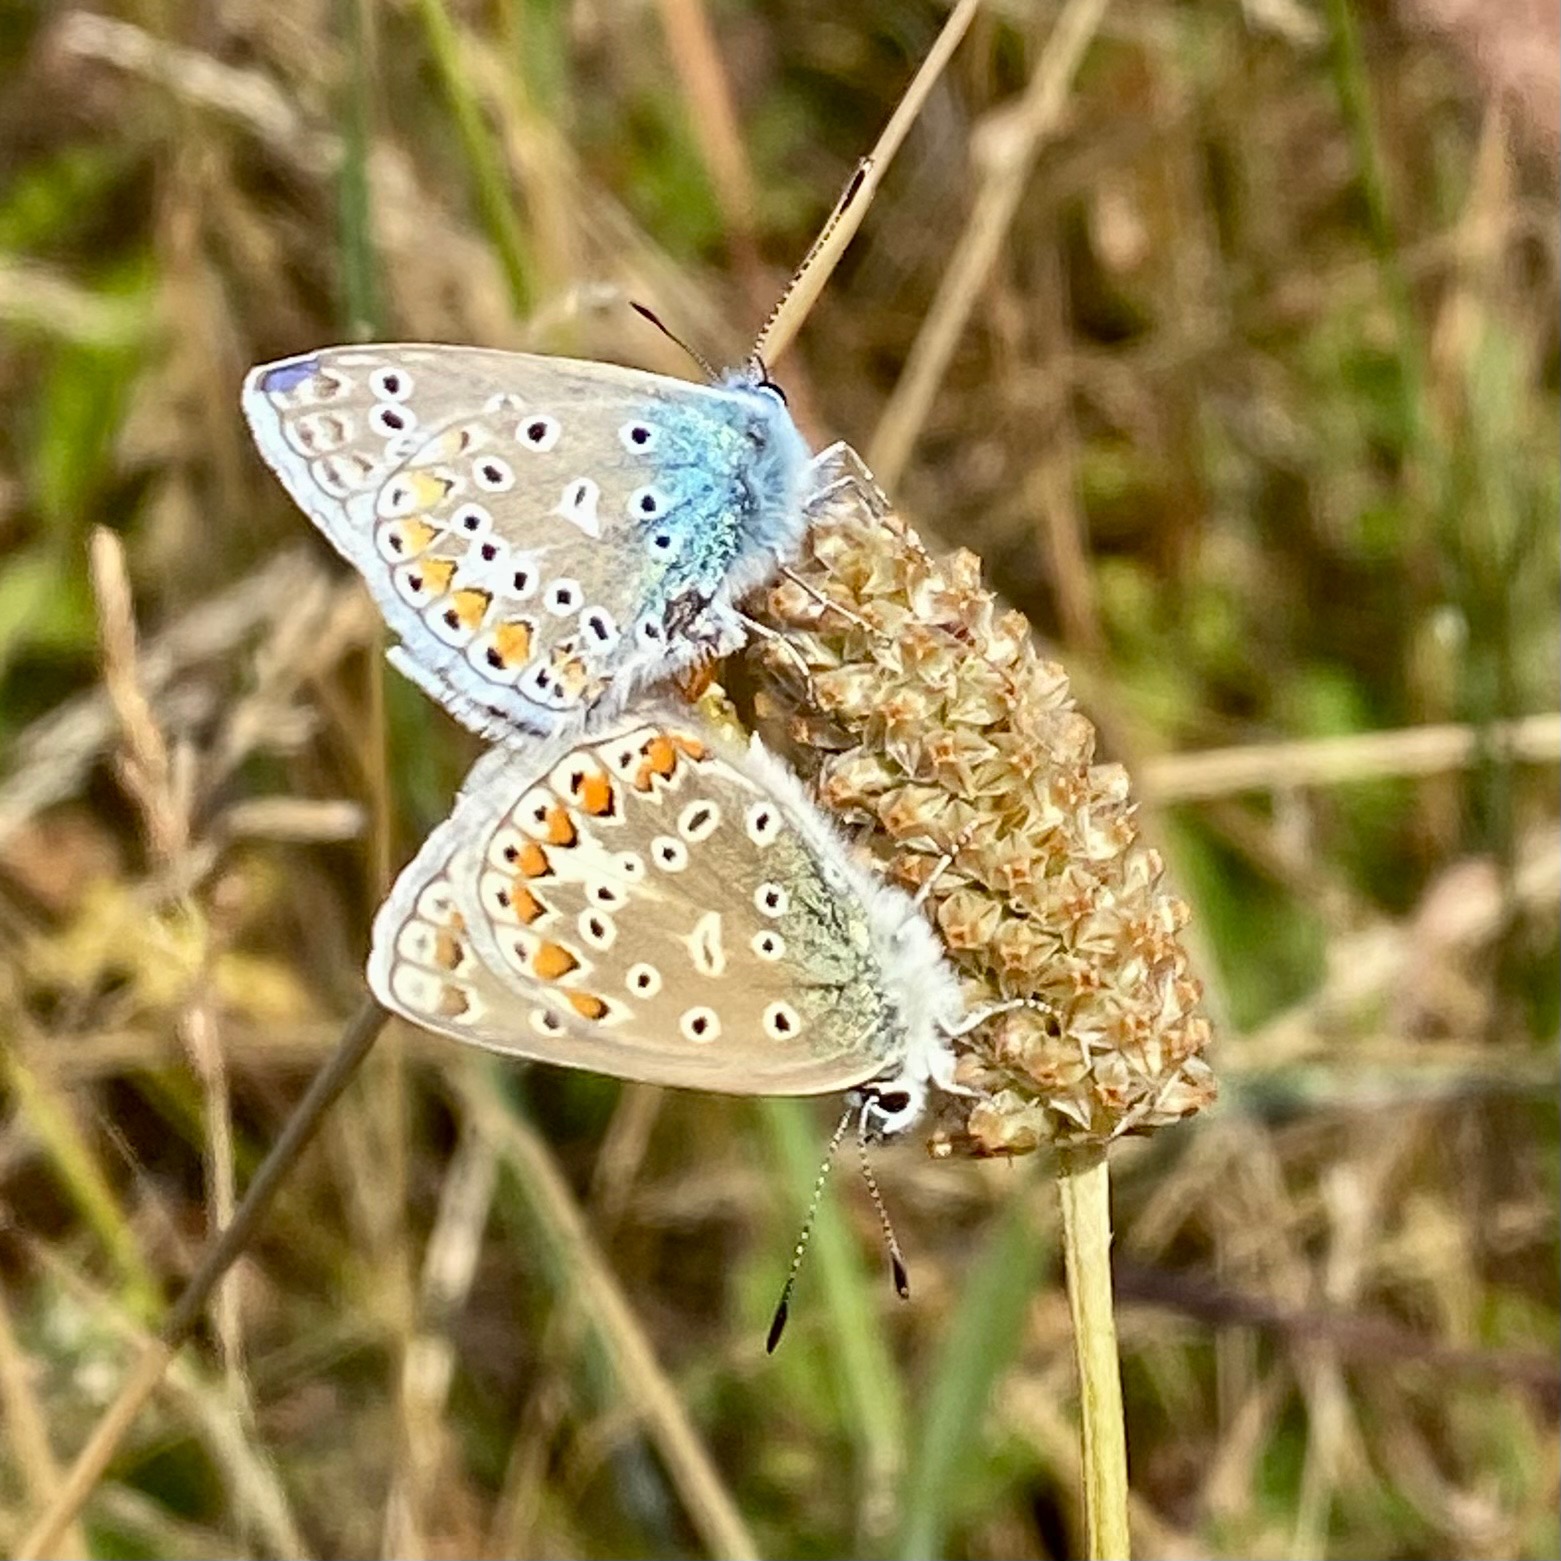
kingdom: Animalia
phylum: Arthropoda
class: Insecta
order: Lepidoptera
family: Lycaenidae
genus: Polyommatus
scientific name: Polyommatus icarus
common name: Almindelig blåfugl
